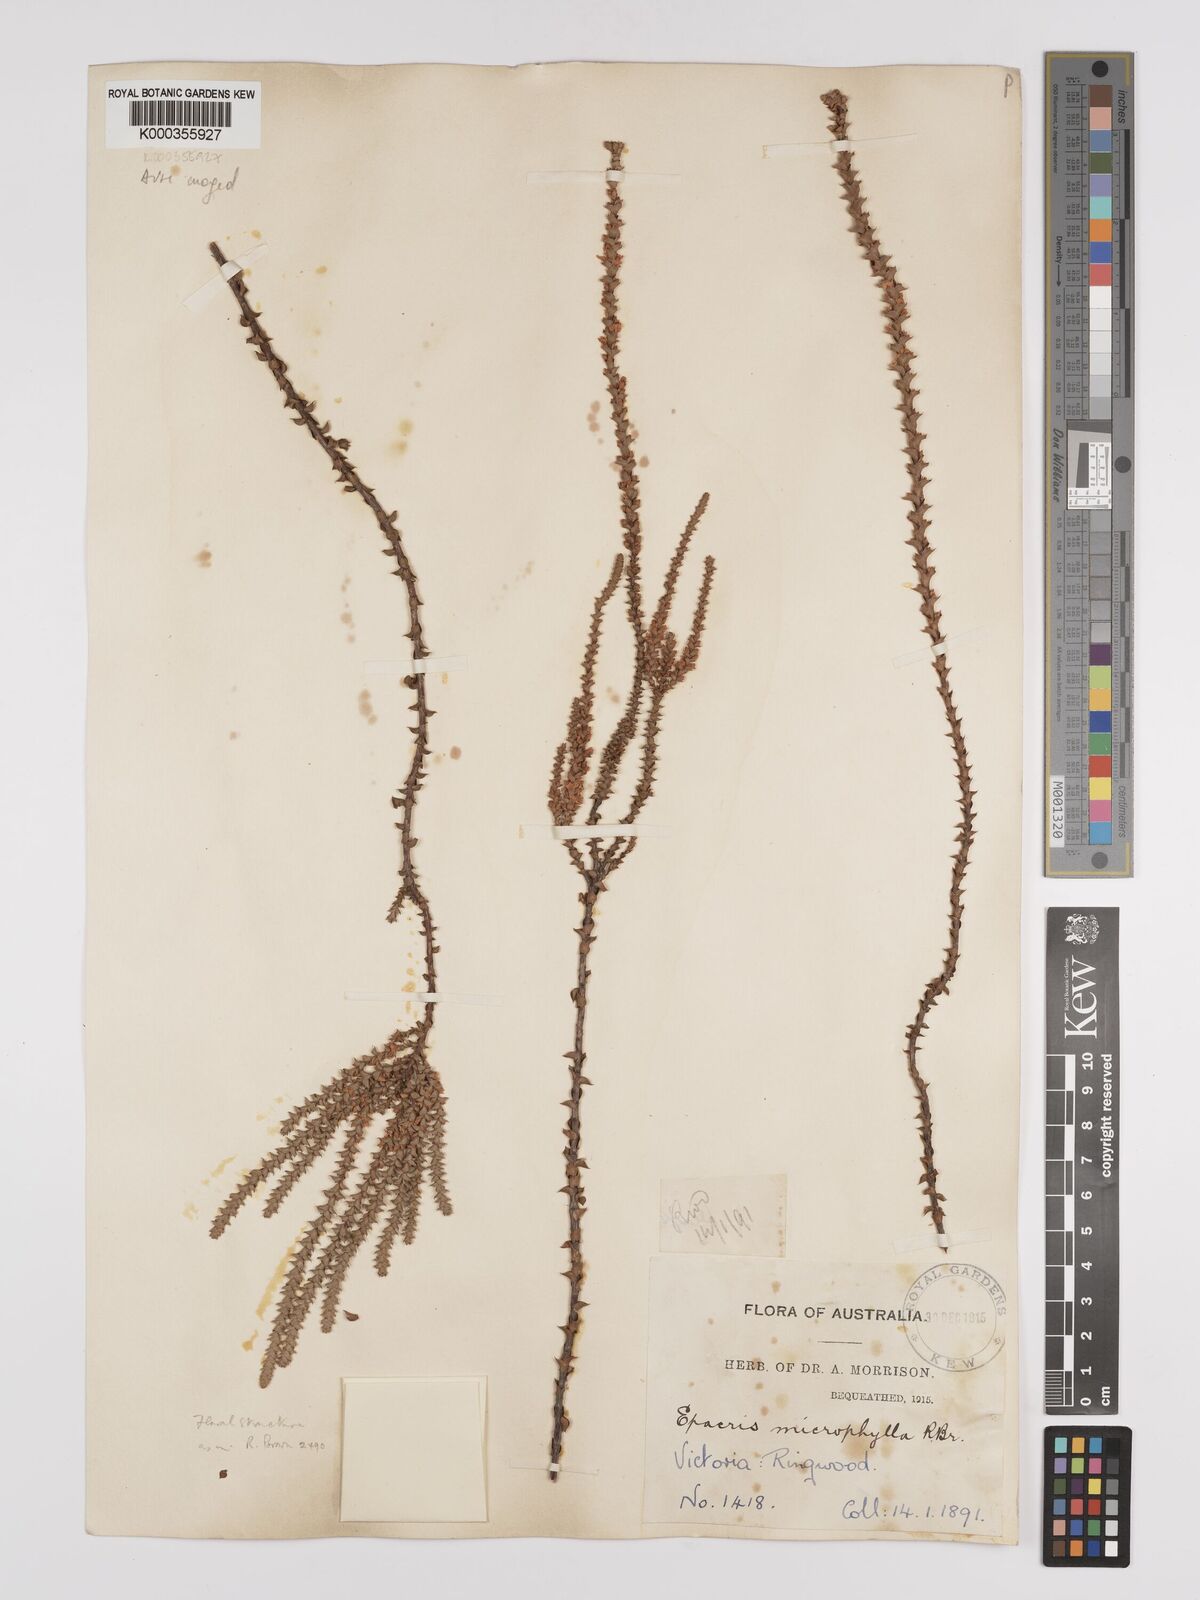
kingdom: Plantae
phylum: Tracheophyta
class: Magnoliopsida
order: Ericales
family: Ericaceae
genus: Epacris
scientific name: Epacris
